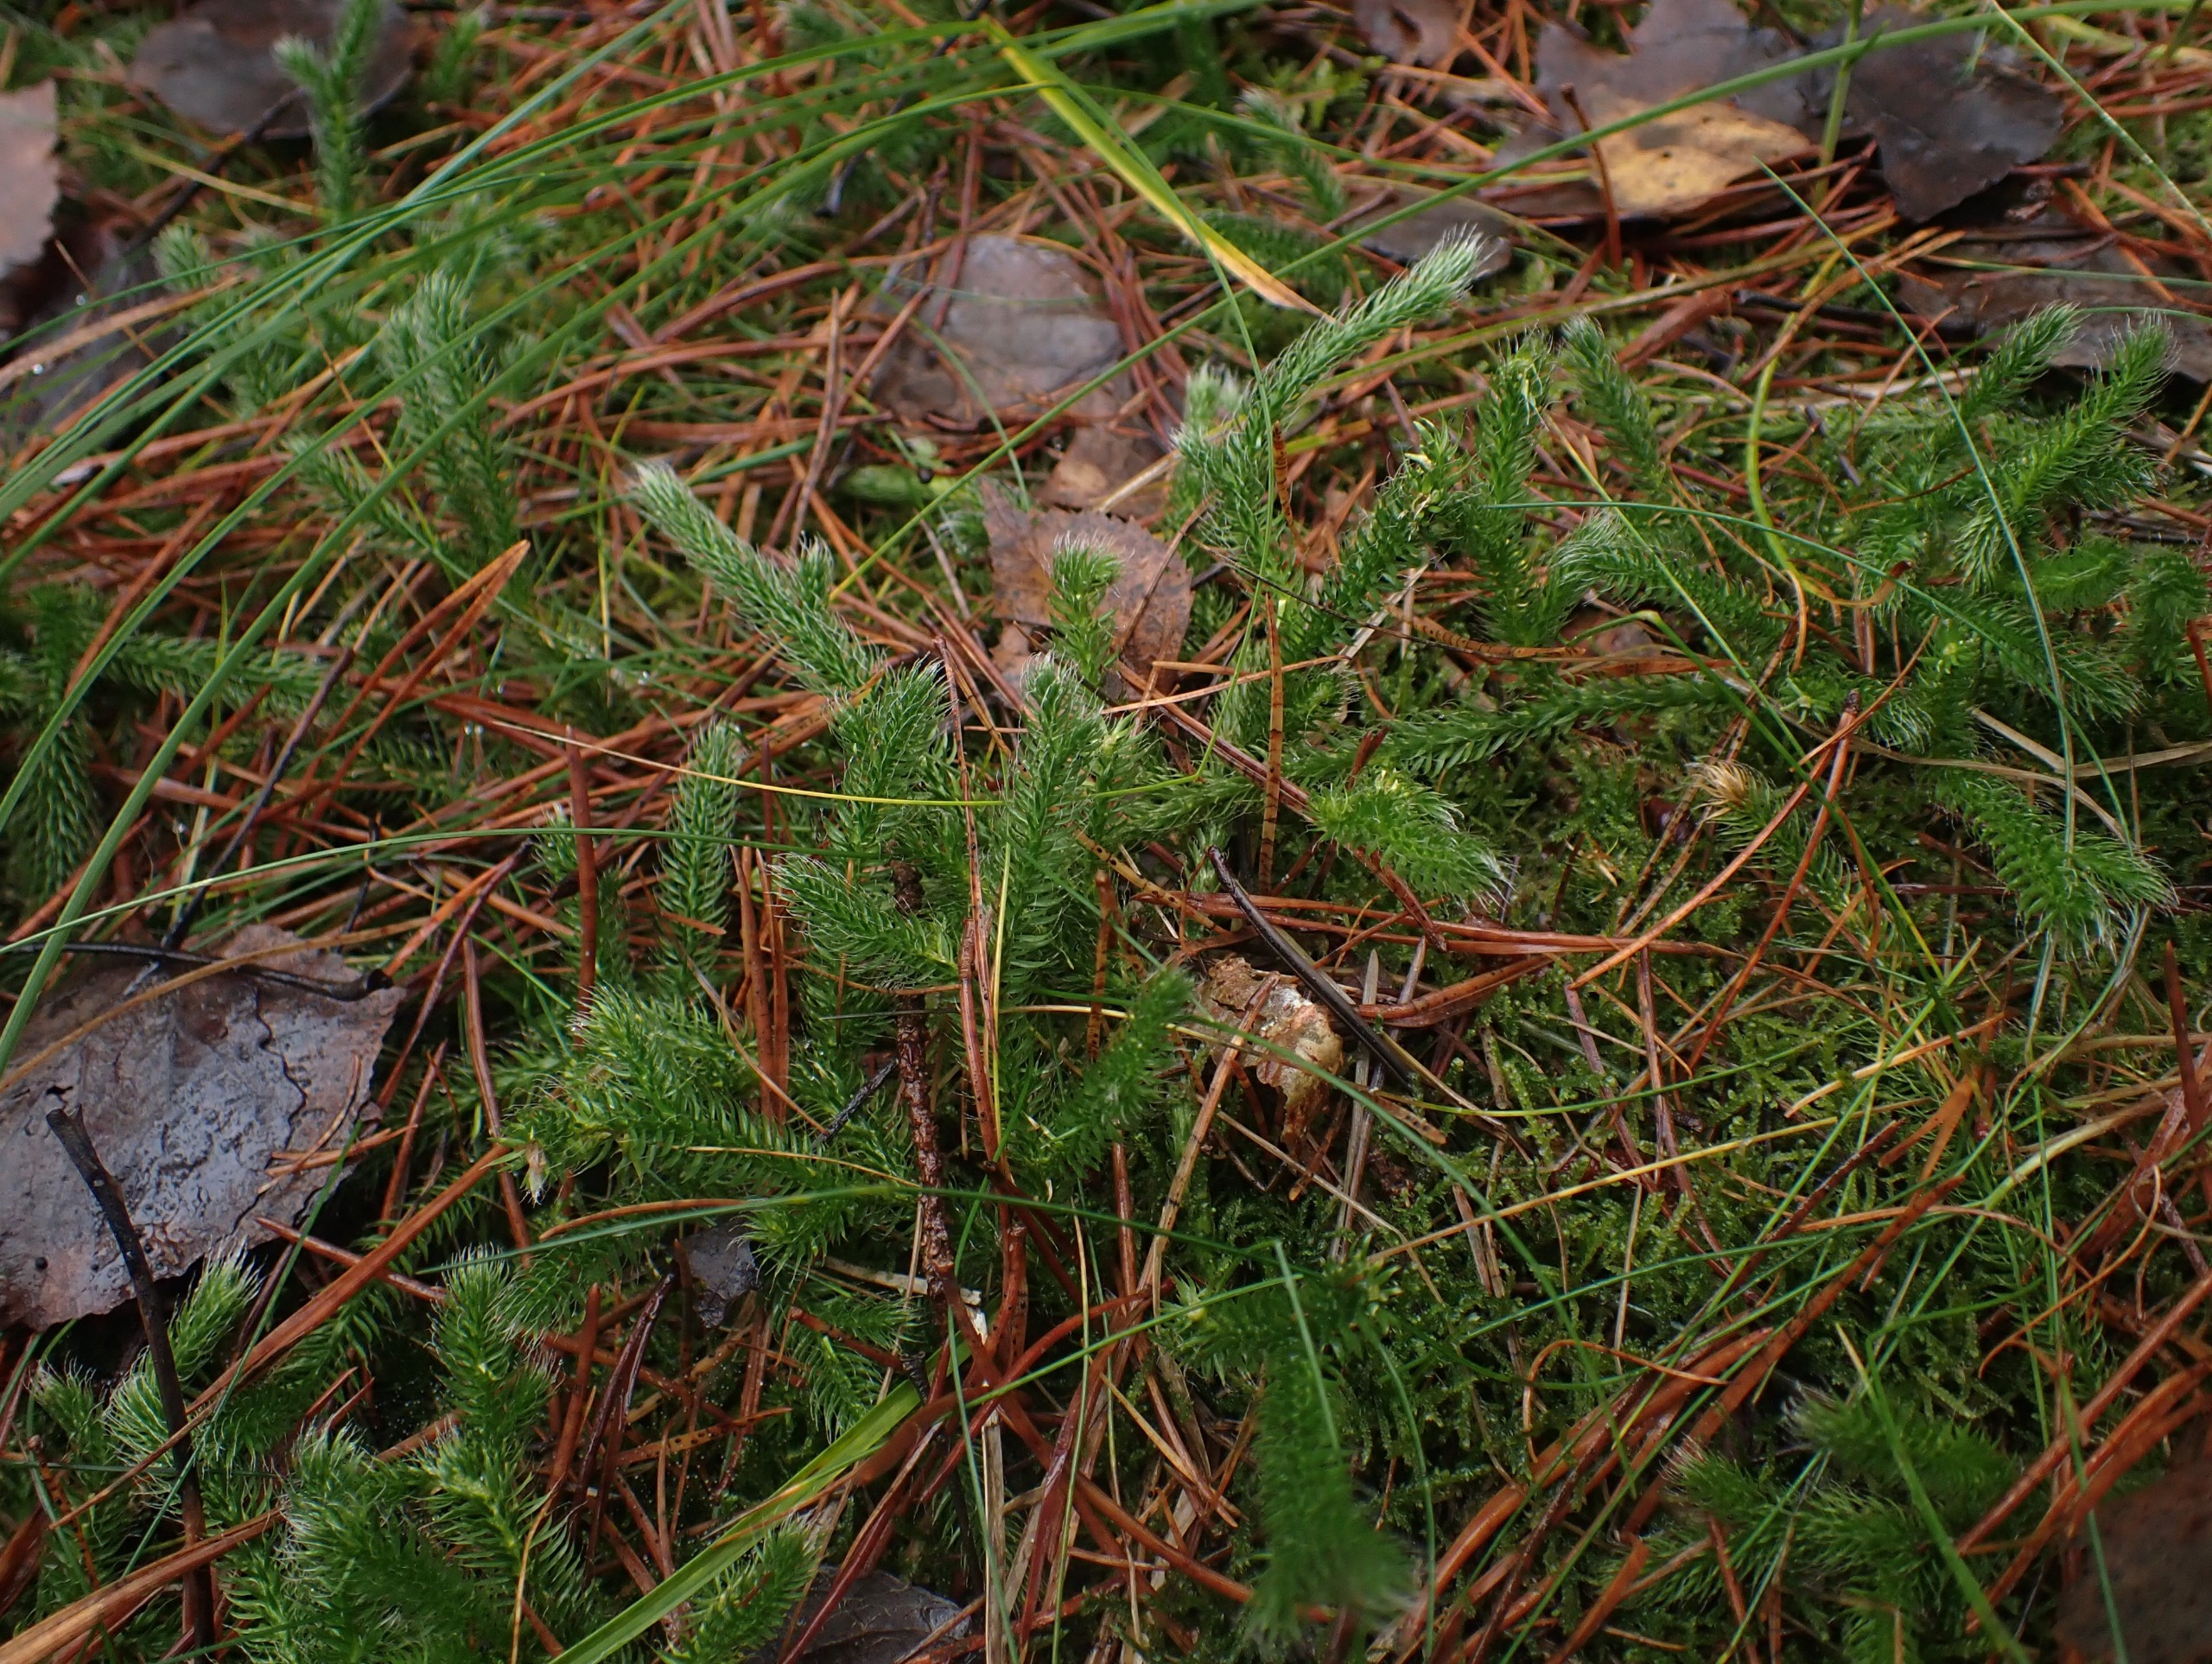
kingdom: Plantae
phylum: Tracheophyta
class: Lycopodiopsida
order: Lycopodiales
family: Lycopodiaceae
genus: Lycopodium
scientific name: Lycopodium clavatum
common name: Almindelig ulvefod
